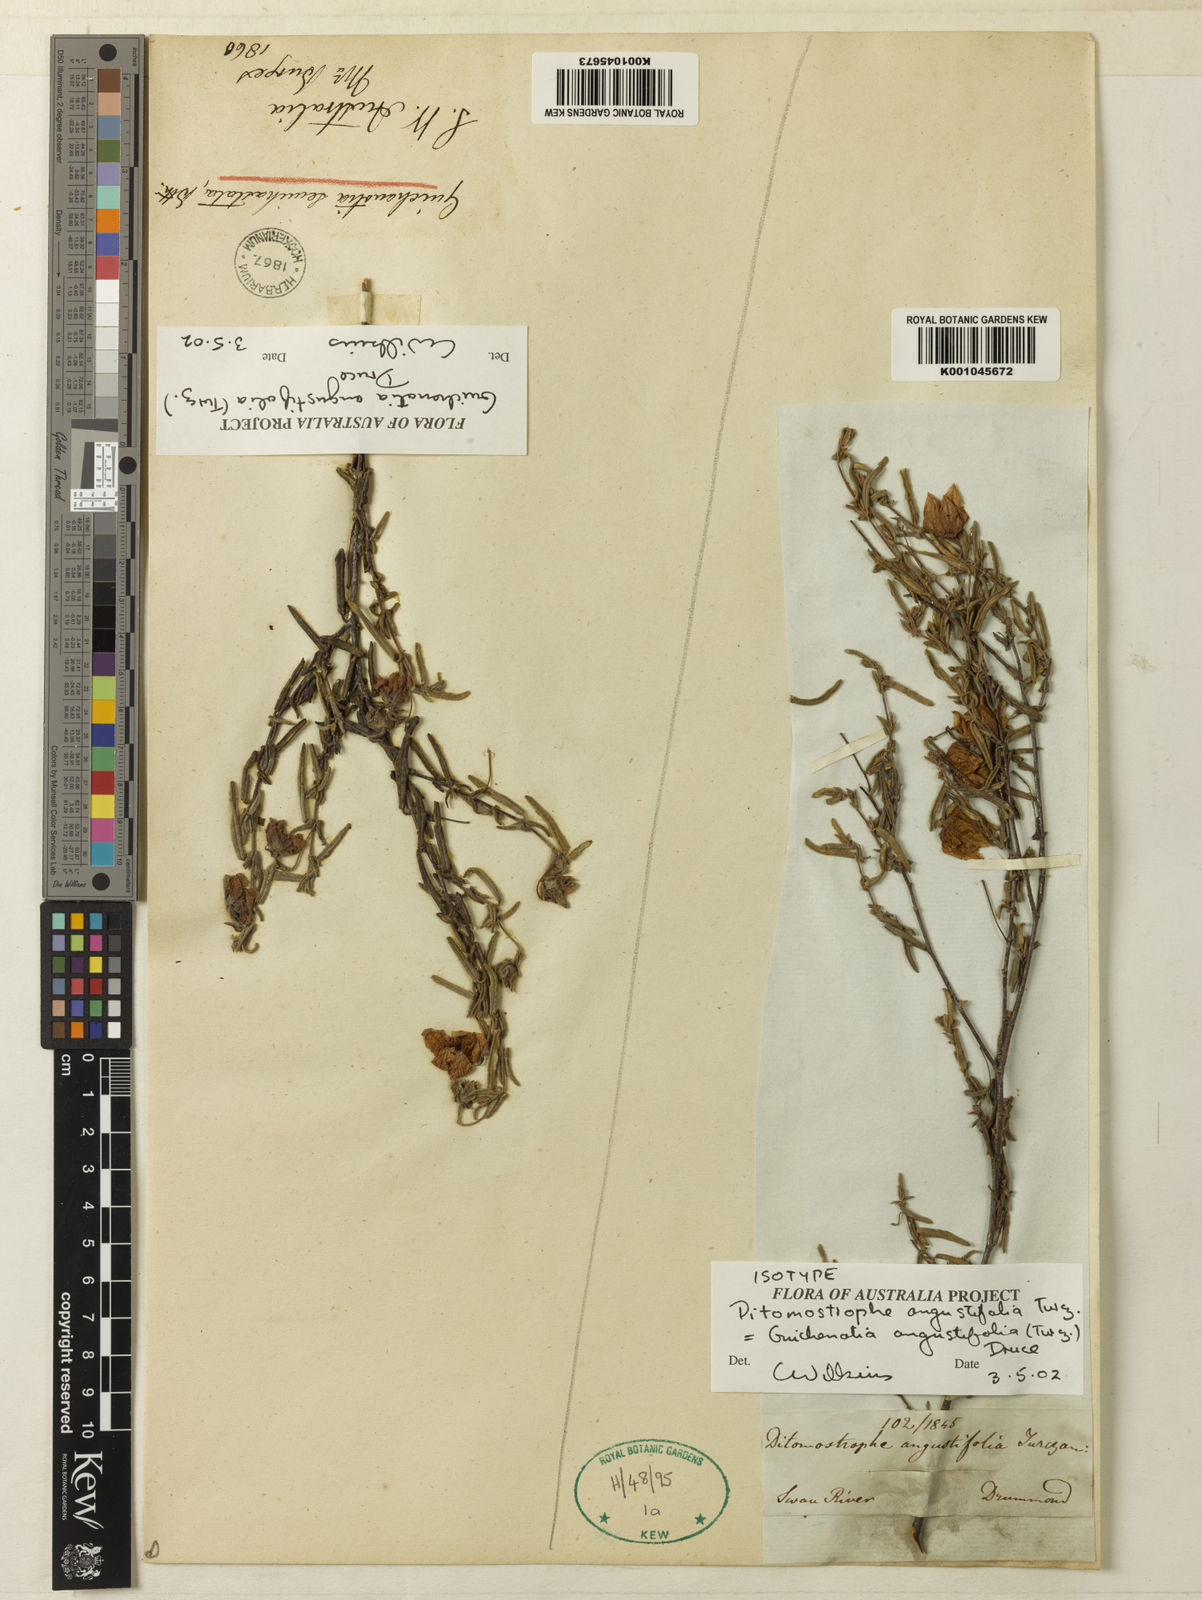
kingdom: Plantae
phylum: Tracheophyta
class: Magnoliopsida
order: Malvales
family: Malvaceae
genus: Guichenotia
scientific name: Guichenotia angustifolia
